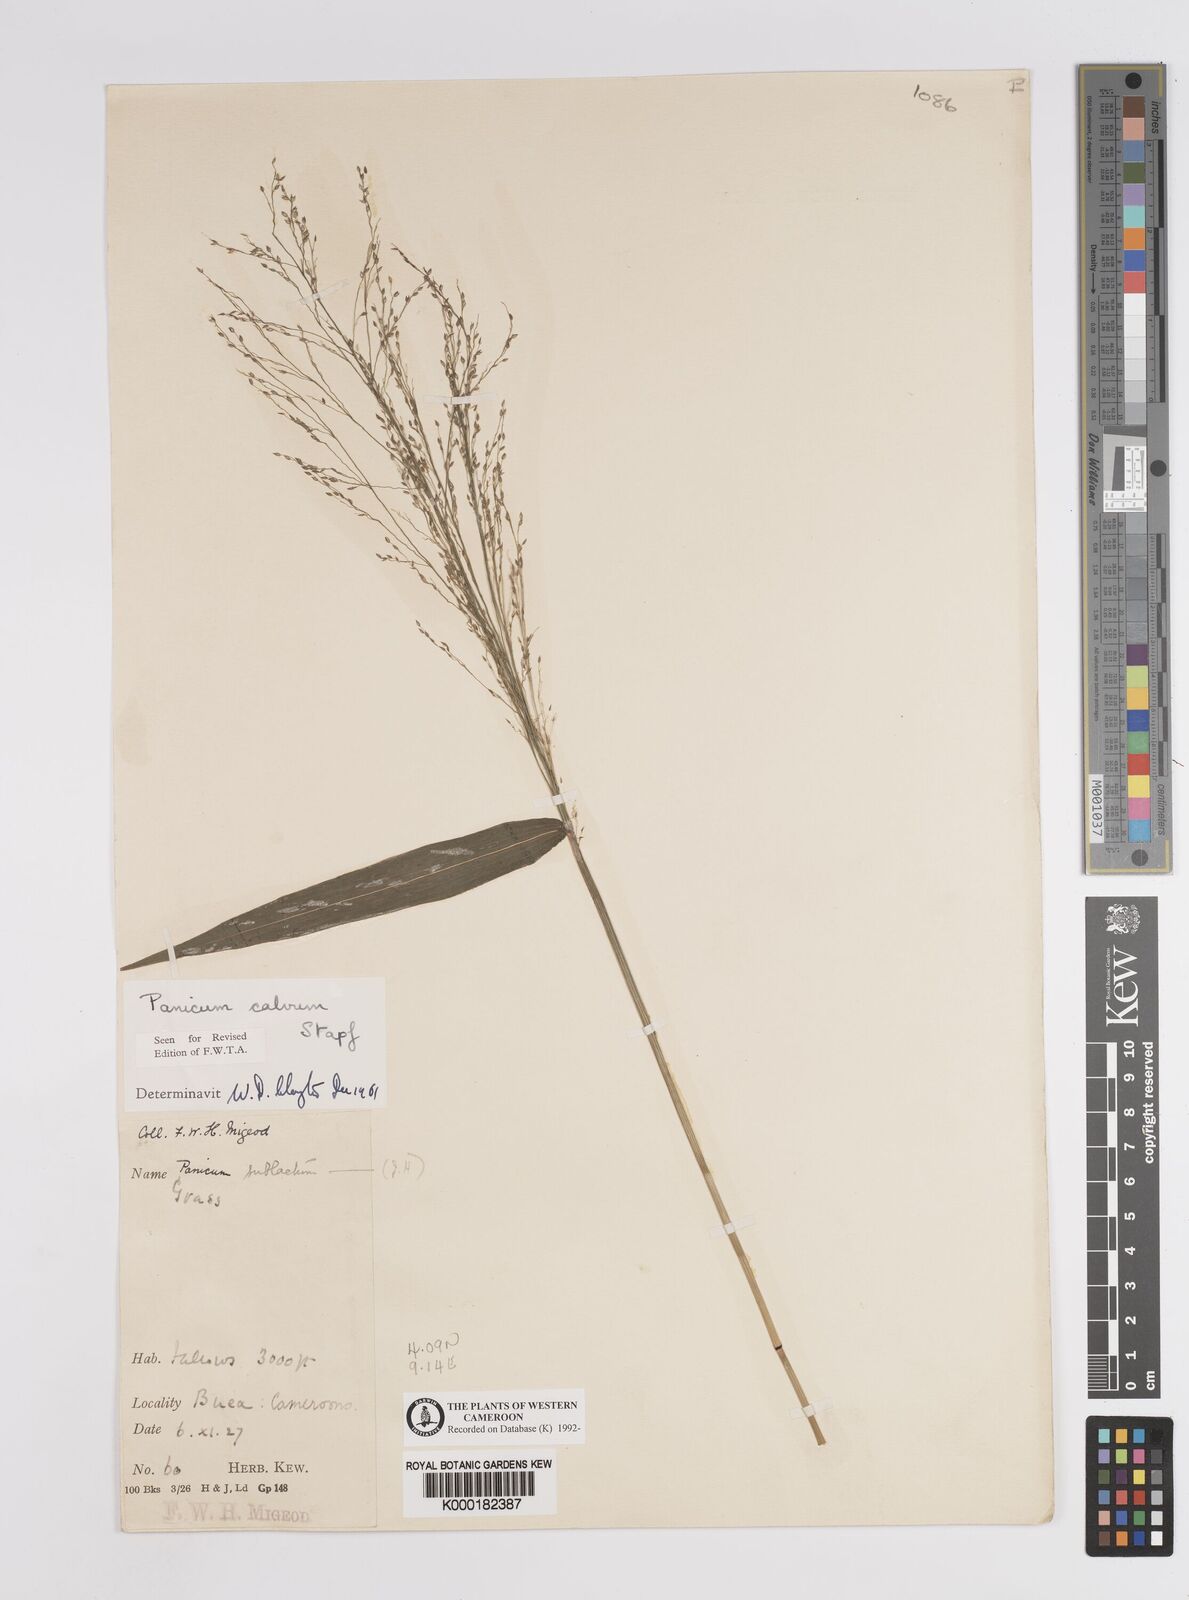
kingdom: Plantae
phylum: Tracheophyta
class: Liliopsida
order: Poales
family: Poaceae
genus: Panicum
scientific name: Panicum calvum
